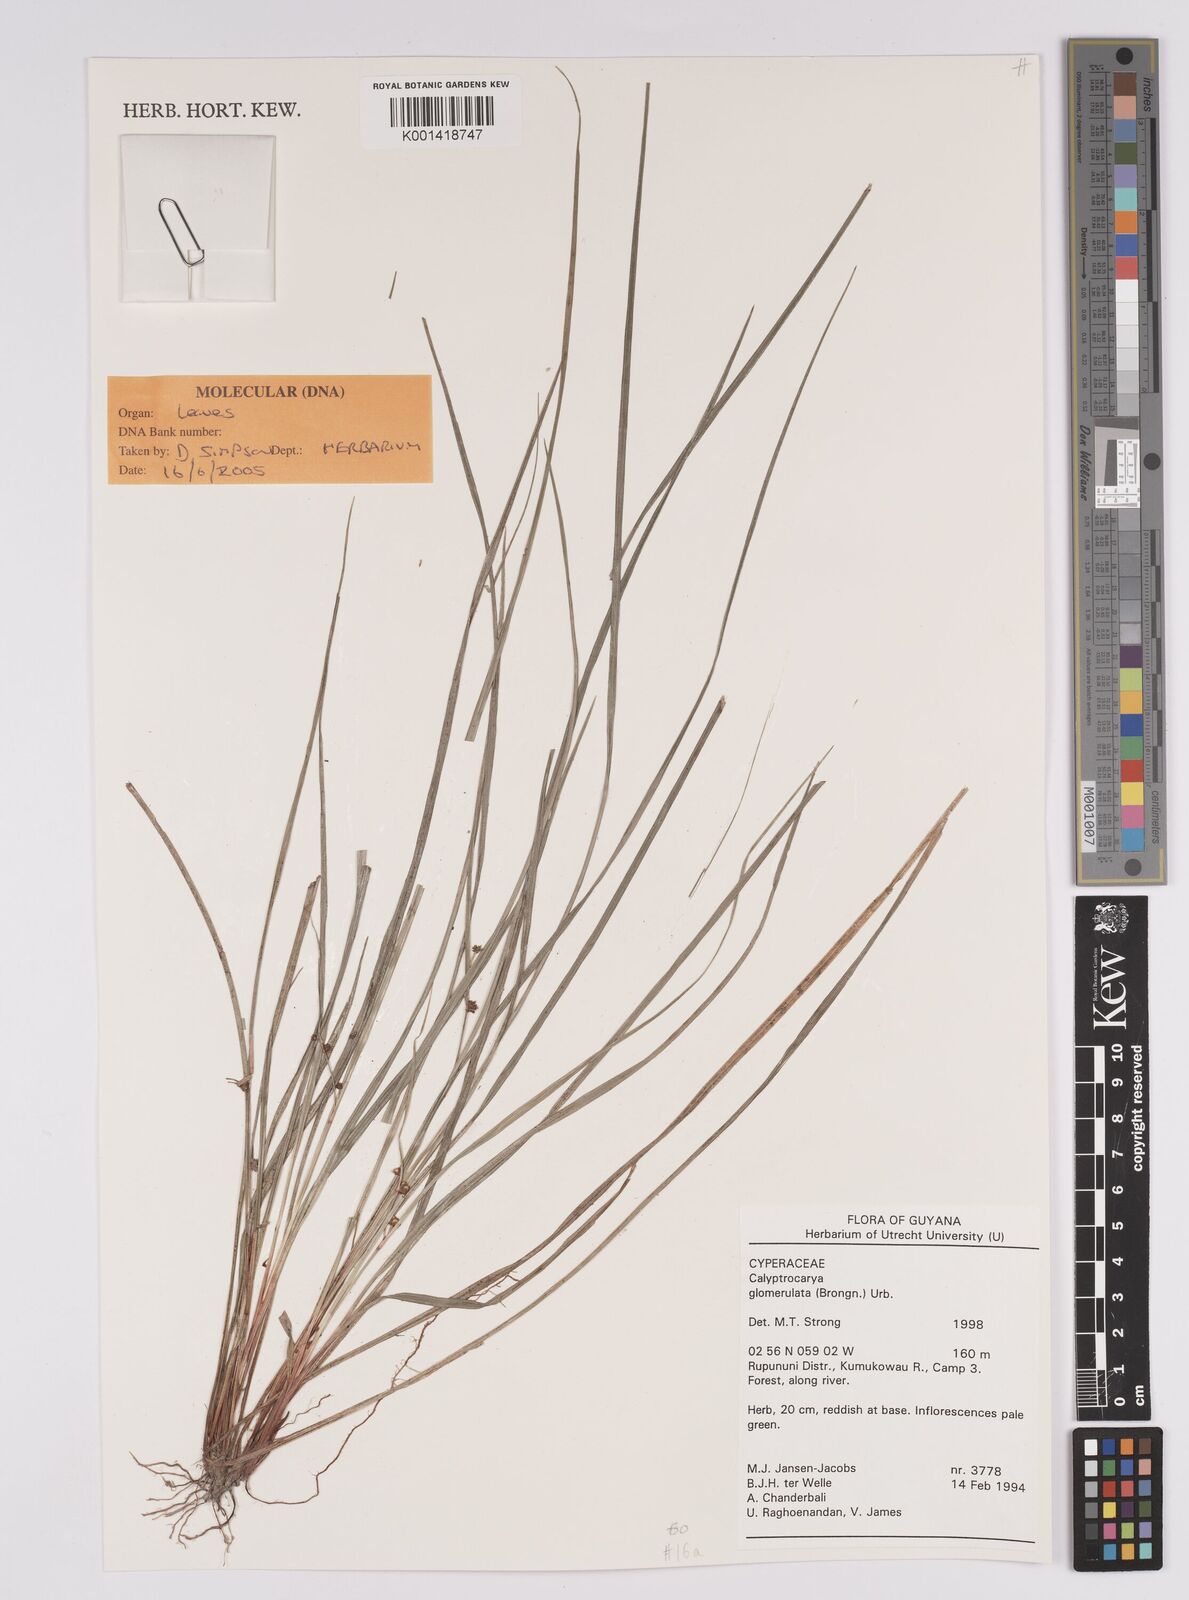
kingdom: Plantae
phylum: Tracheophyta
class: Liliopsida
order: Poales
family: Cyperaceae
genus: Calyptrocarya
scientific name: Calyptrocarya glomerulata
